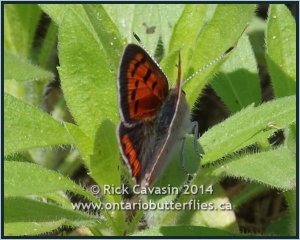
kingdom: Animalia
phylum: Arthropoda
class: Insecta
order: Lepidoptera
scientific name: Lepidoptera
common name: Butterflies
